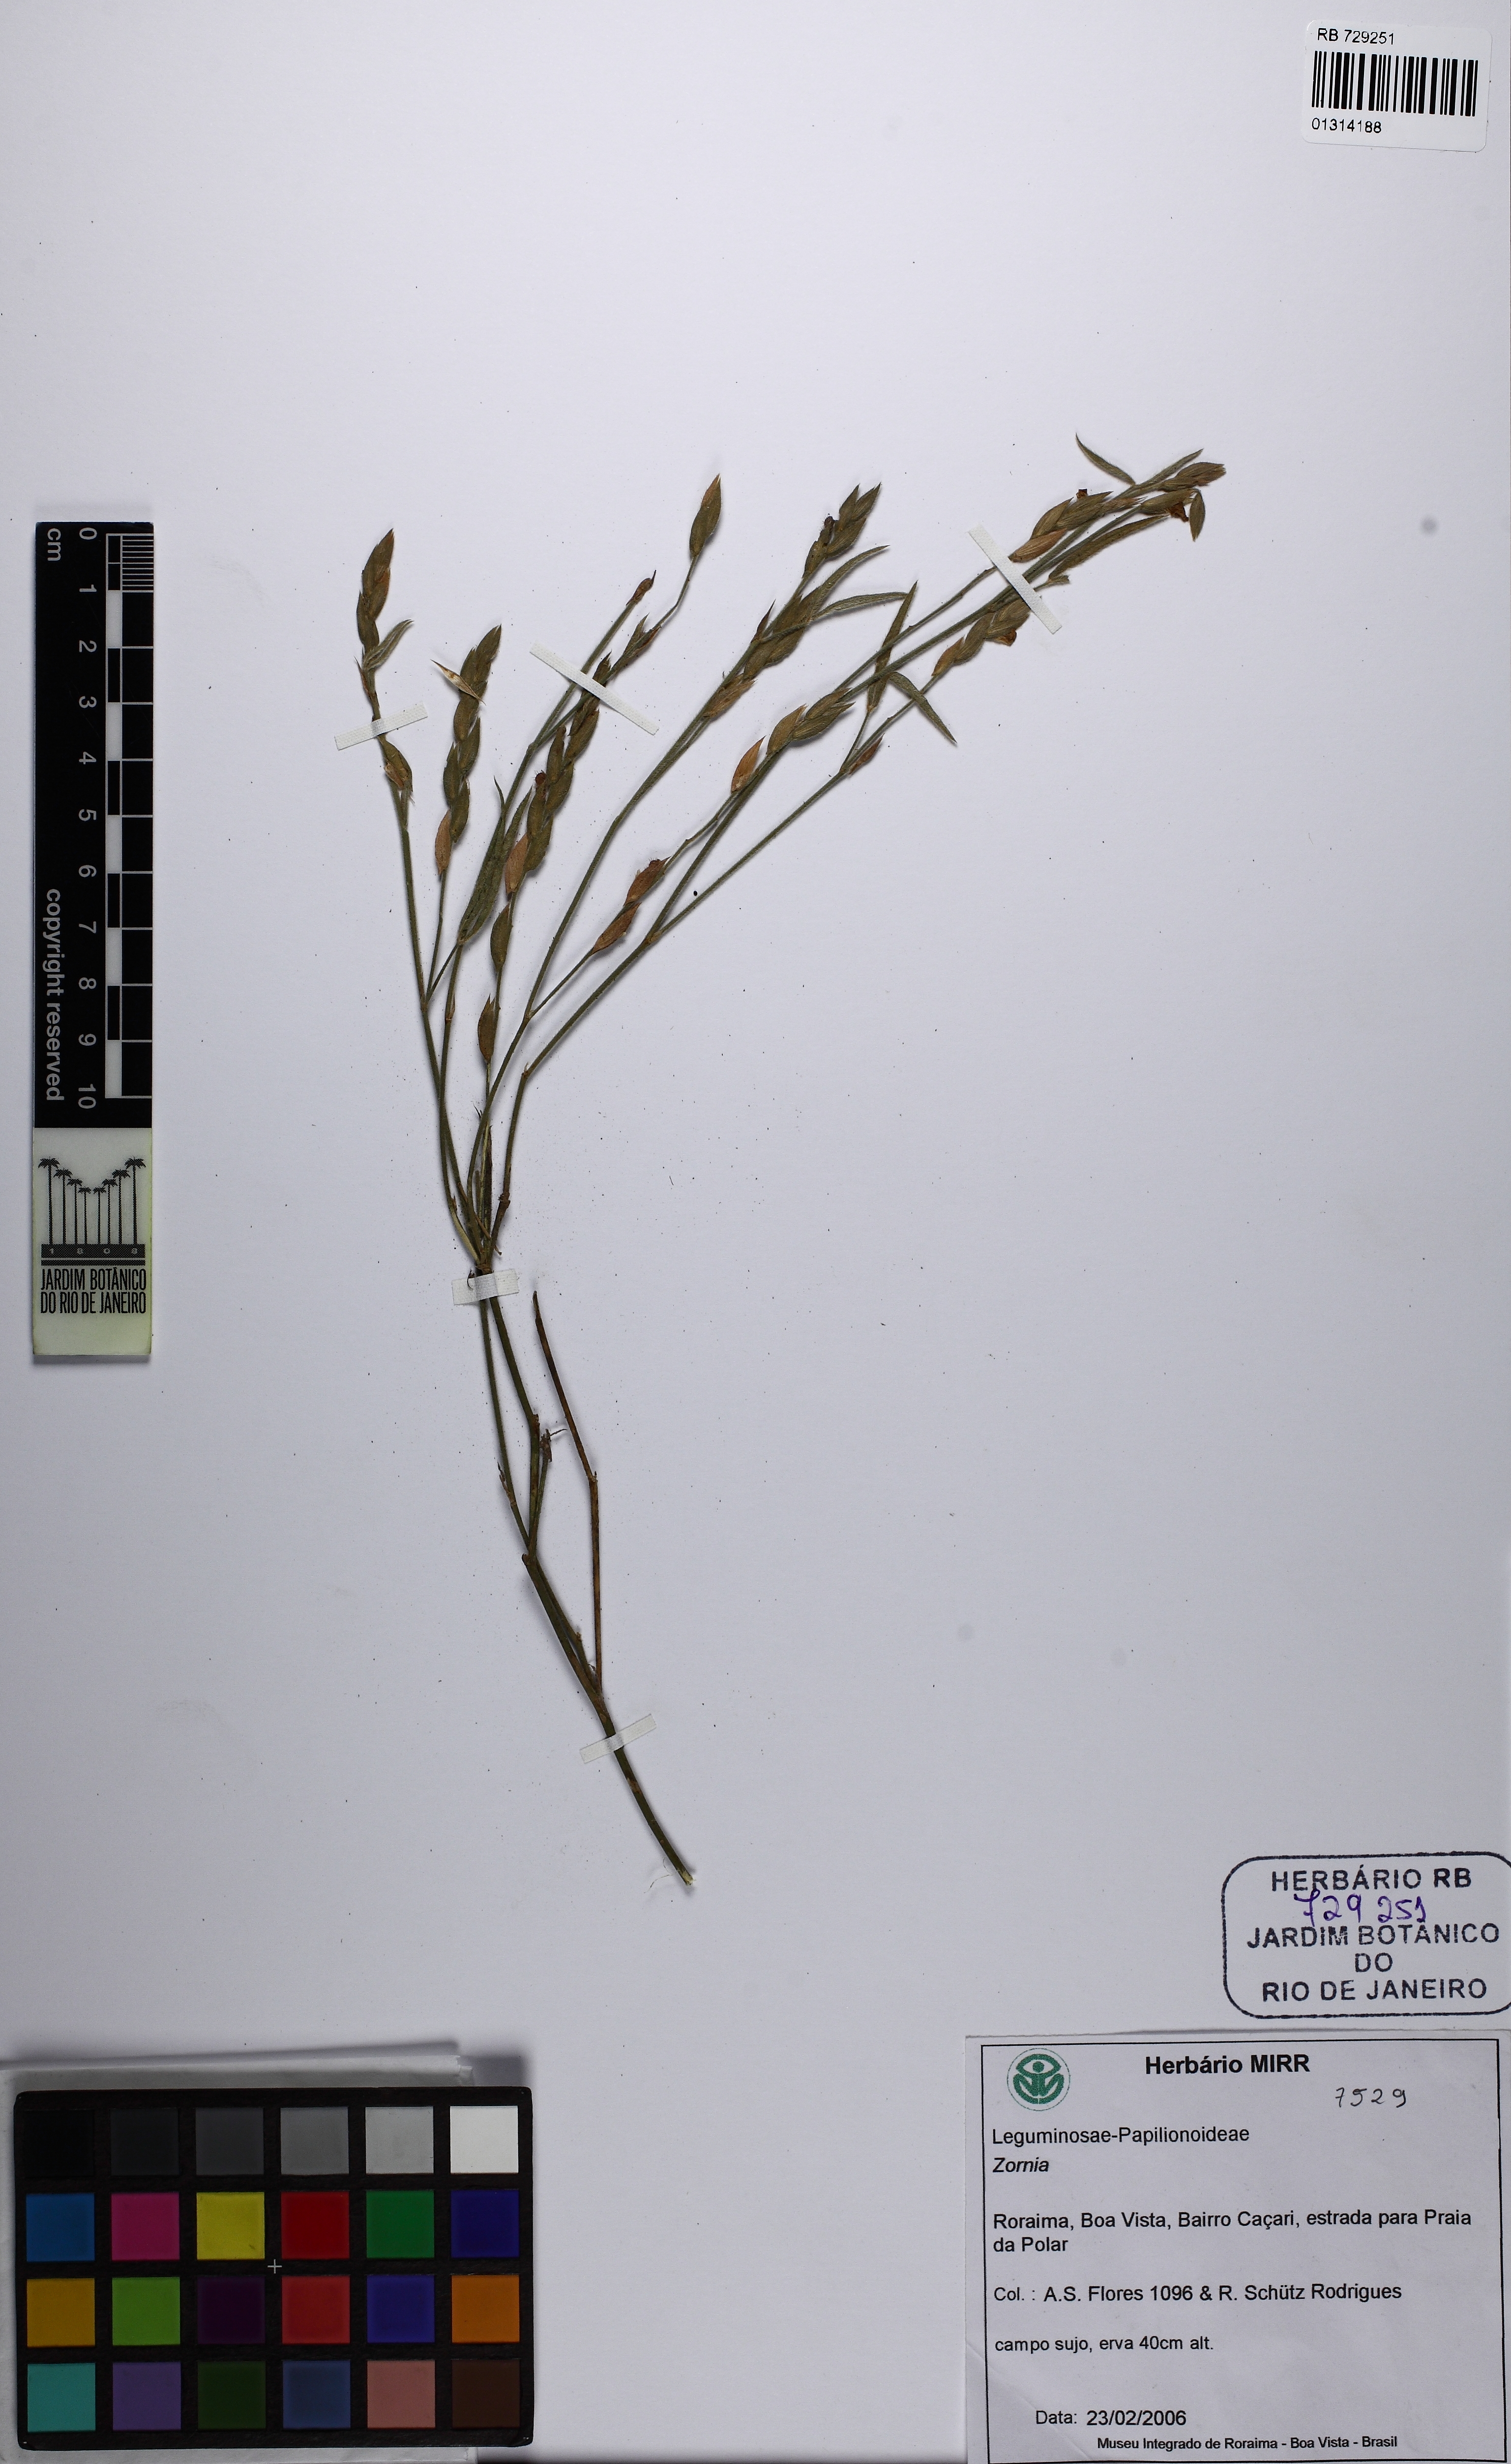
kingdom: Plantae
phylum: Tracheophyta
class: Magnoliopsida
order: Fabales
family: Fabaceae
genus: Zornia
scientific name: Zornia latifolia
